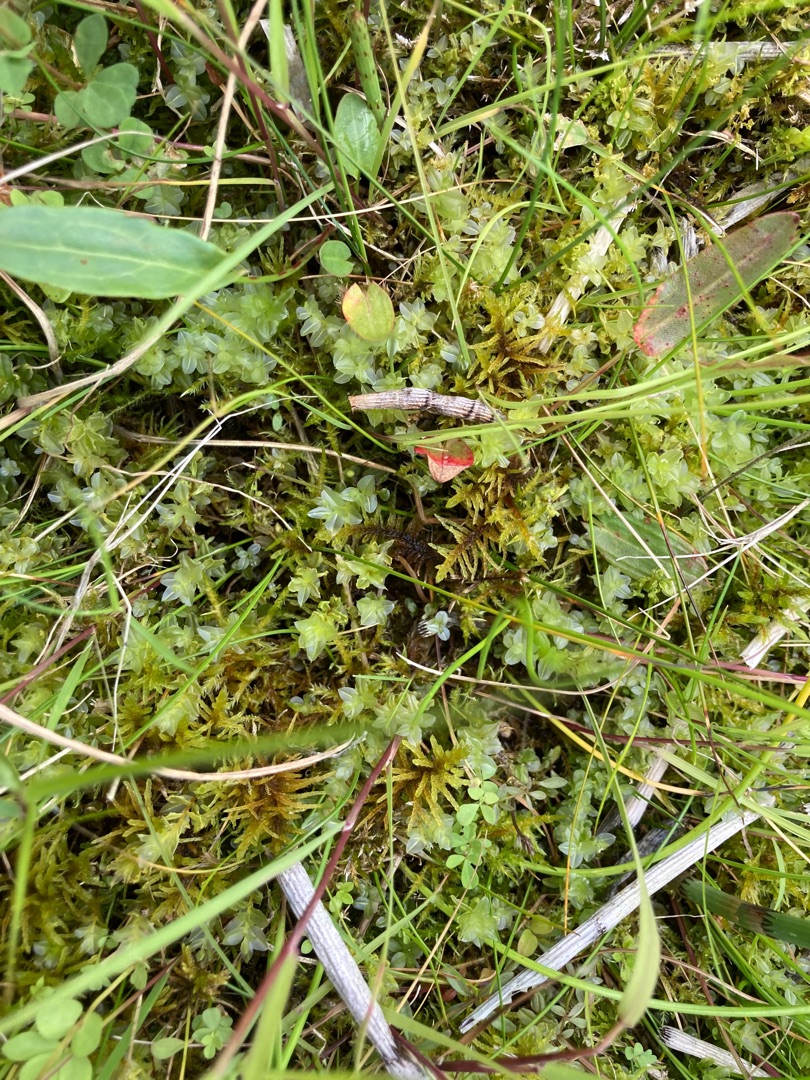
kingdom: Plantae
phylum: Bryophyta
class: Bryopsida
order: Hypnales
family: Helodiaceae
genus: Helodium
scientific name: Helodium blandowii
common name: Kær-gyldenmos
